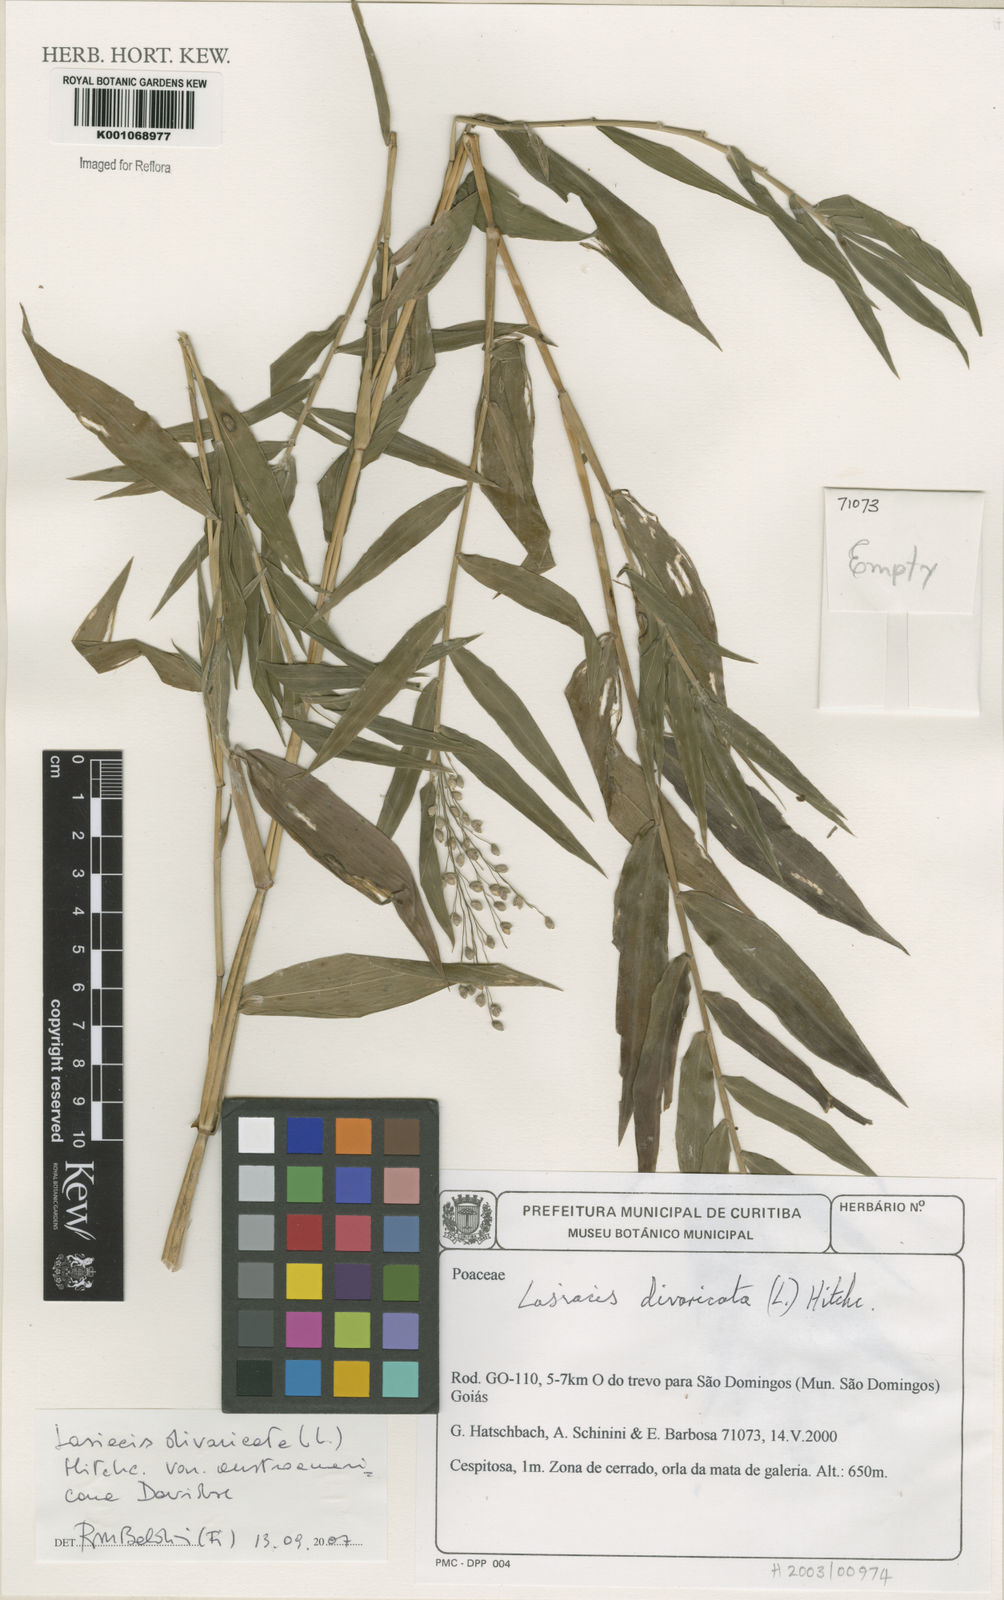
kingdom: Plantae
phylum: Tracheophyta
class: Liliopsida
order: Poales
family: Poaceae
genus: Lasiacis
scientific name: Lasiacis divaricata
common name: Smallcane
